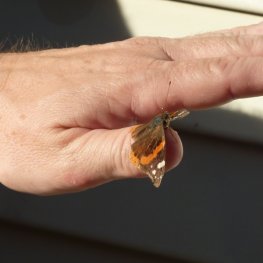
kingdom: Animalia
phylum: Arthropoda
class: Insecta
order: Lepidoptera
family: Nymphalidae
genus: Vanessa
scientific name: Vanessa atalanta
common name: Red Admiral
